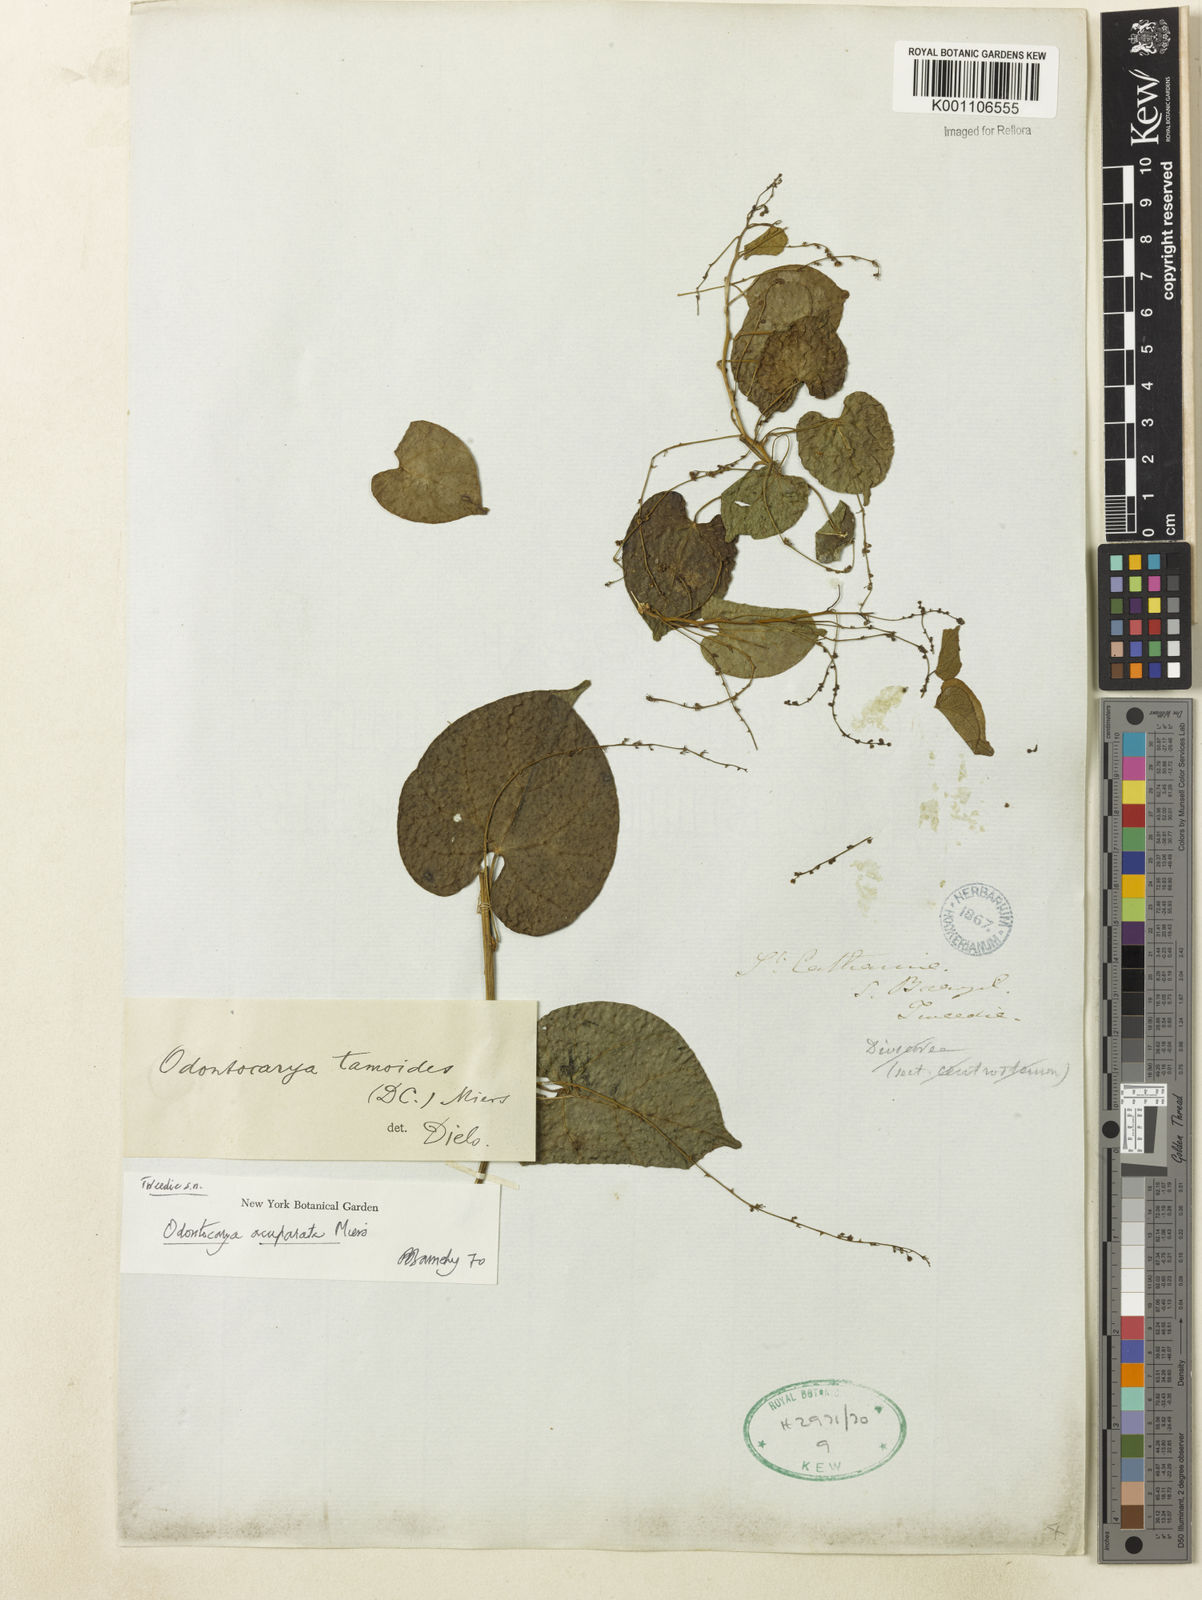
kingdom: Plantae
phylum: Tracheophyta
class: Magnoliopsida
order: Ranunculales
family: Menispermaceae
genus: Odontocarya
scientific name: Odontocarya acuparata
